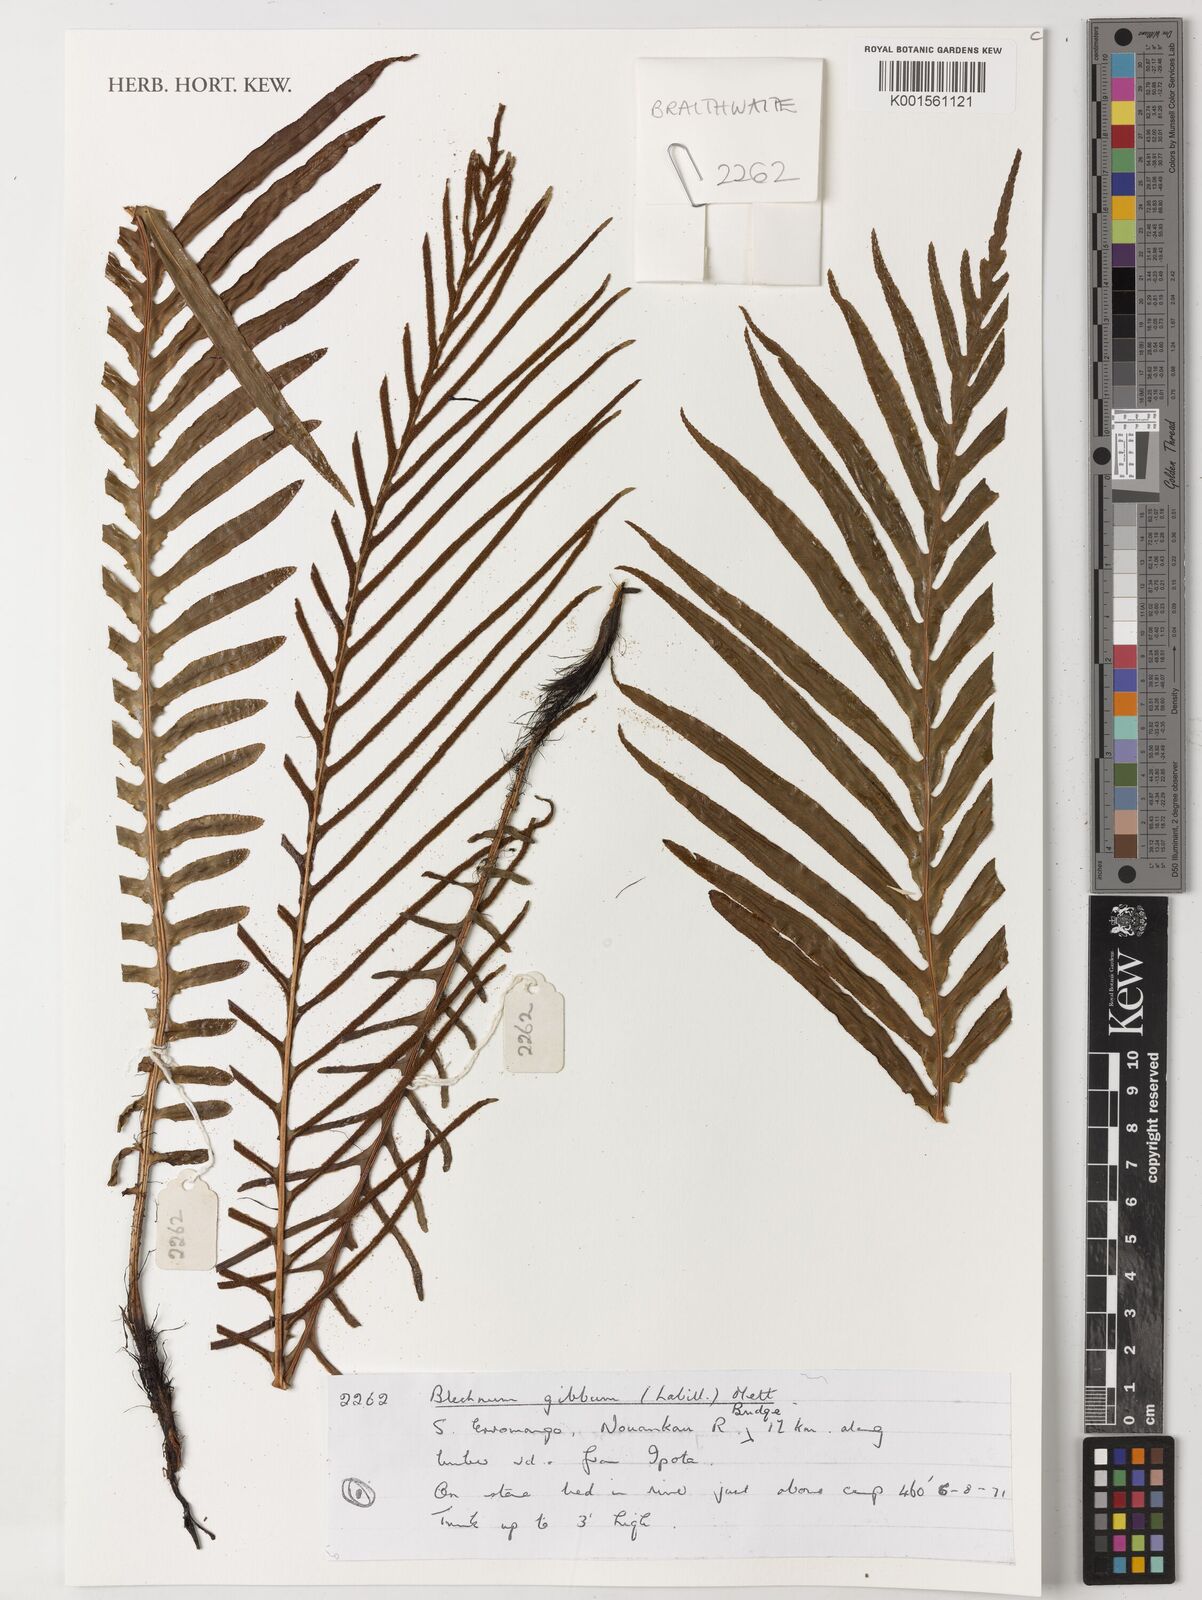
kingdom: Plantae
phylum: Tracheophyta
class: Polypodiopsida
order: Polypodiales
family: Blechnaceae
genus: Oceaniopteris
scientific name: Oceaniopteris gibba
